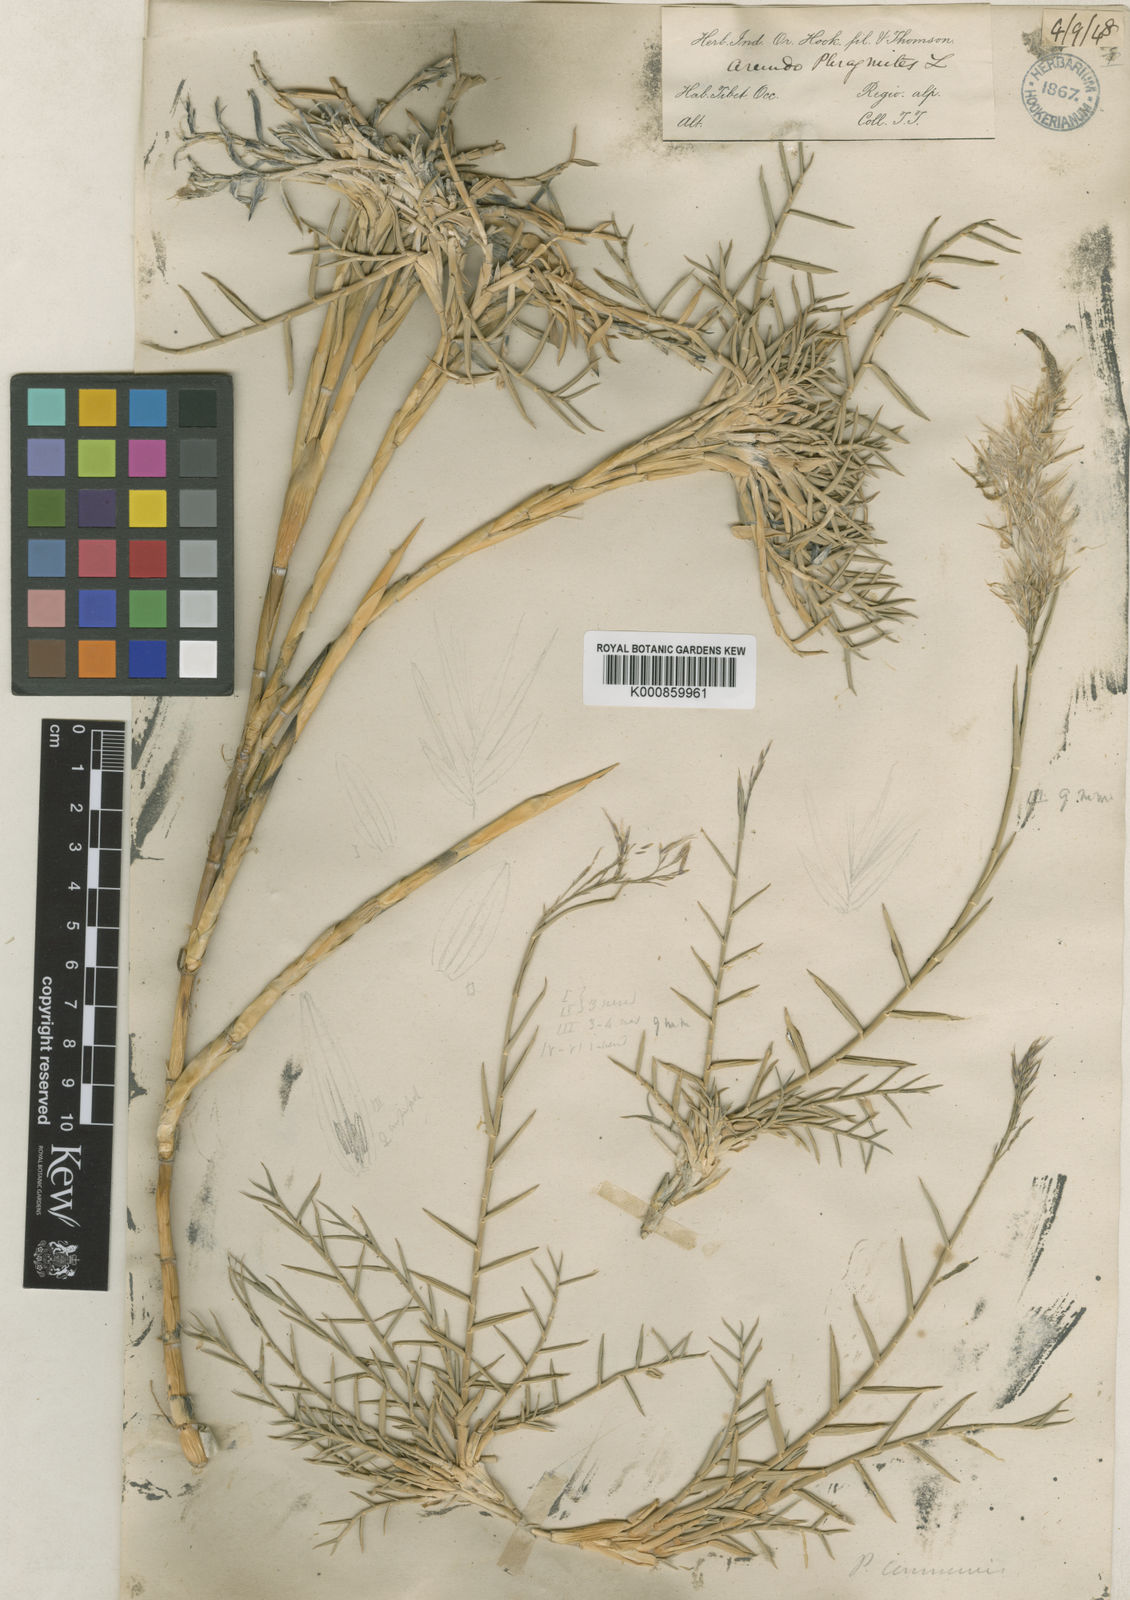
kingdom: Plantae
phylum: Tracheophyta
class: Liliopsida
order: Poales
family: Poaceae
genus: Phragmites
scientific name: Phragmites australis
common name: Common reed
